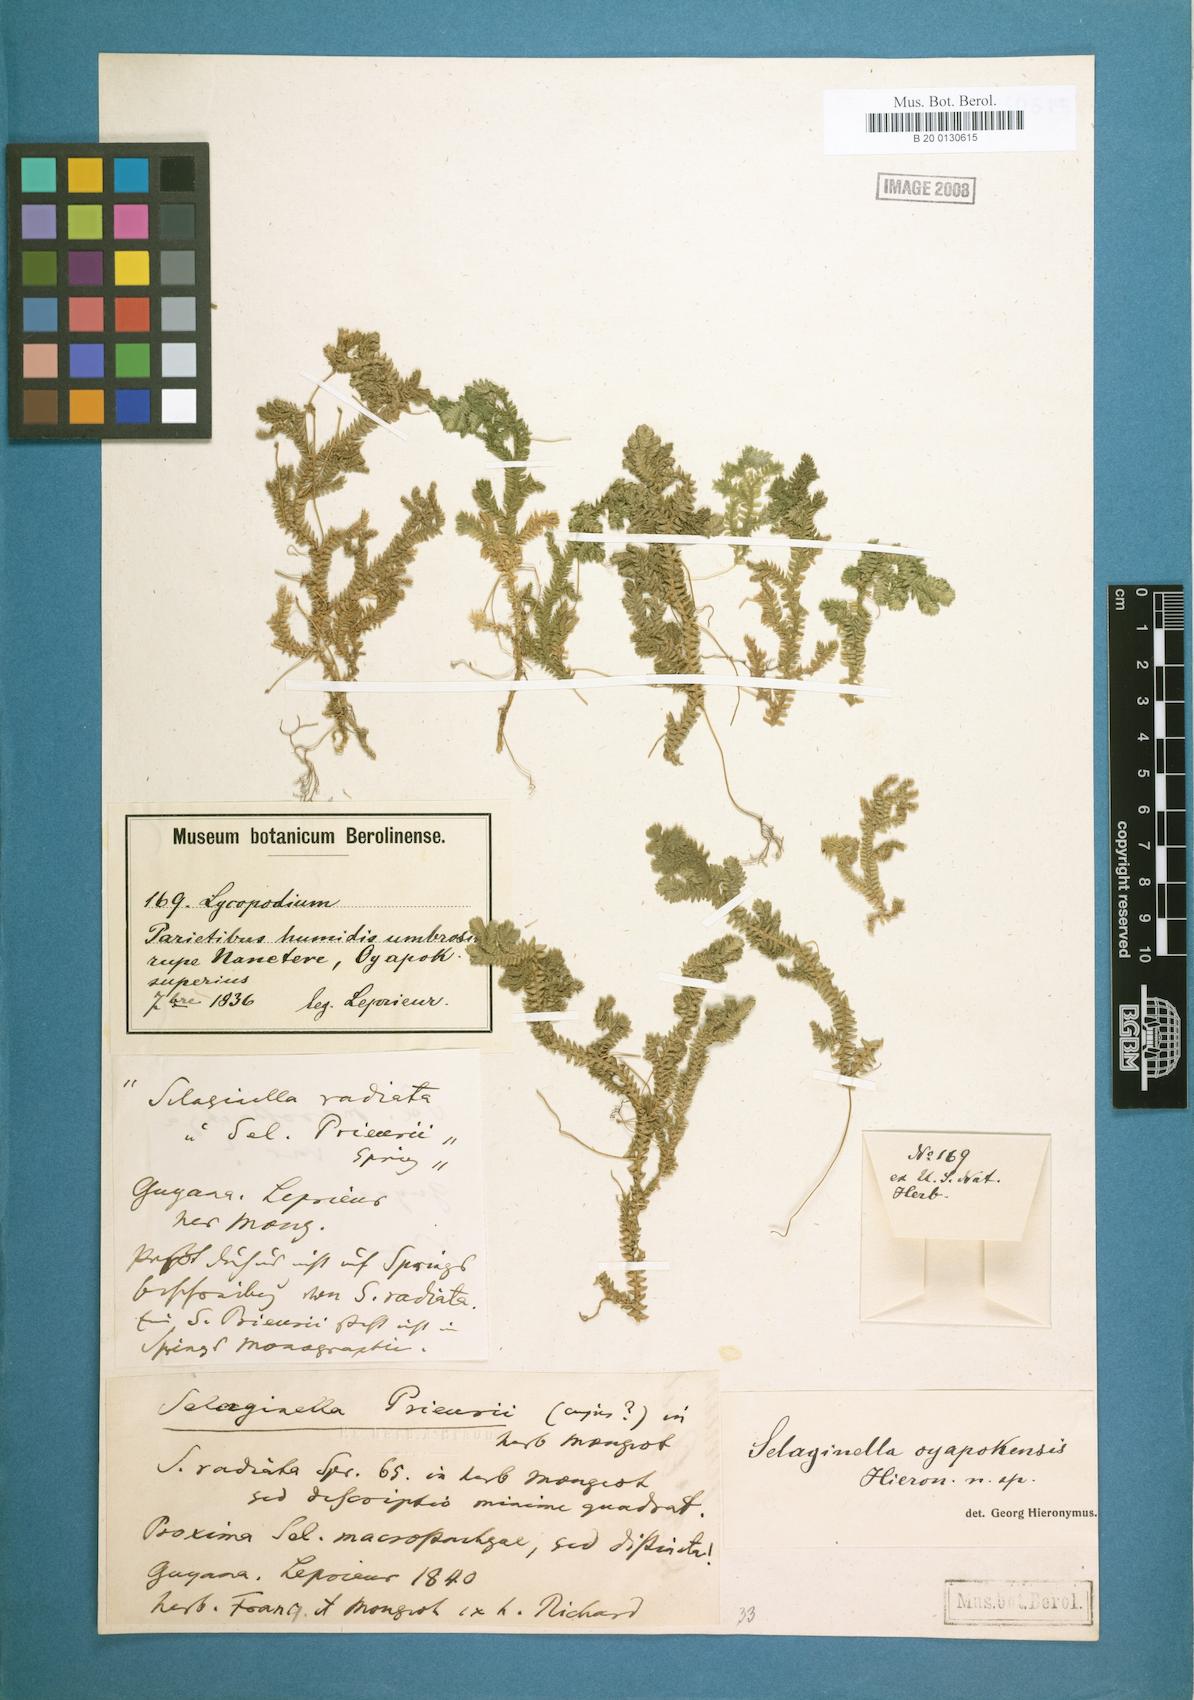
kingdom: Plantae
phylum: Tracheophyta
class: Lycopodiopsida
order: Selaginellales
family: Selaginellaceae
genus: Selaginella
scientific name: Selaginella
